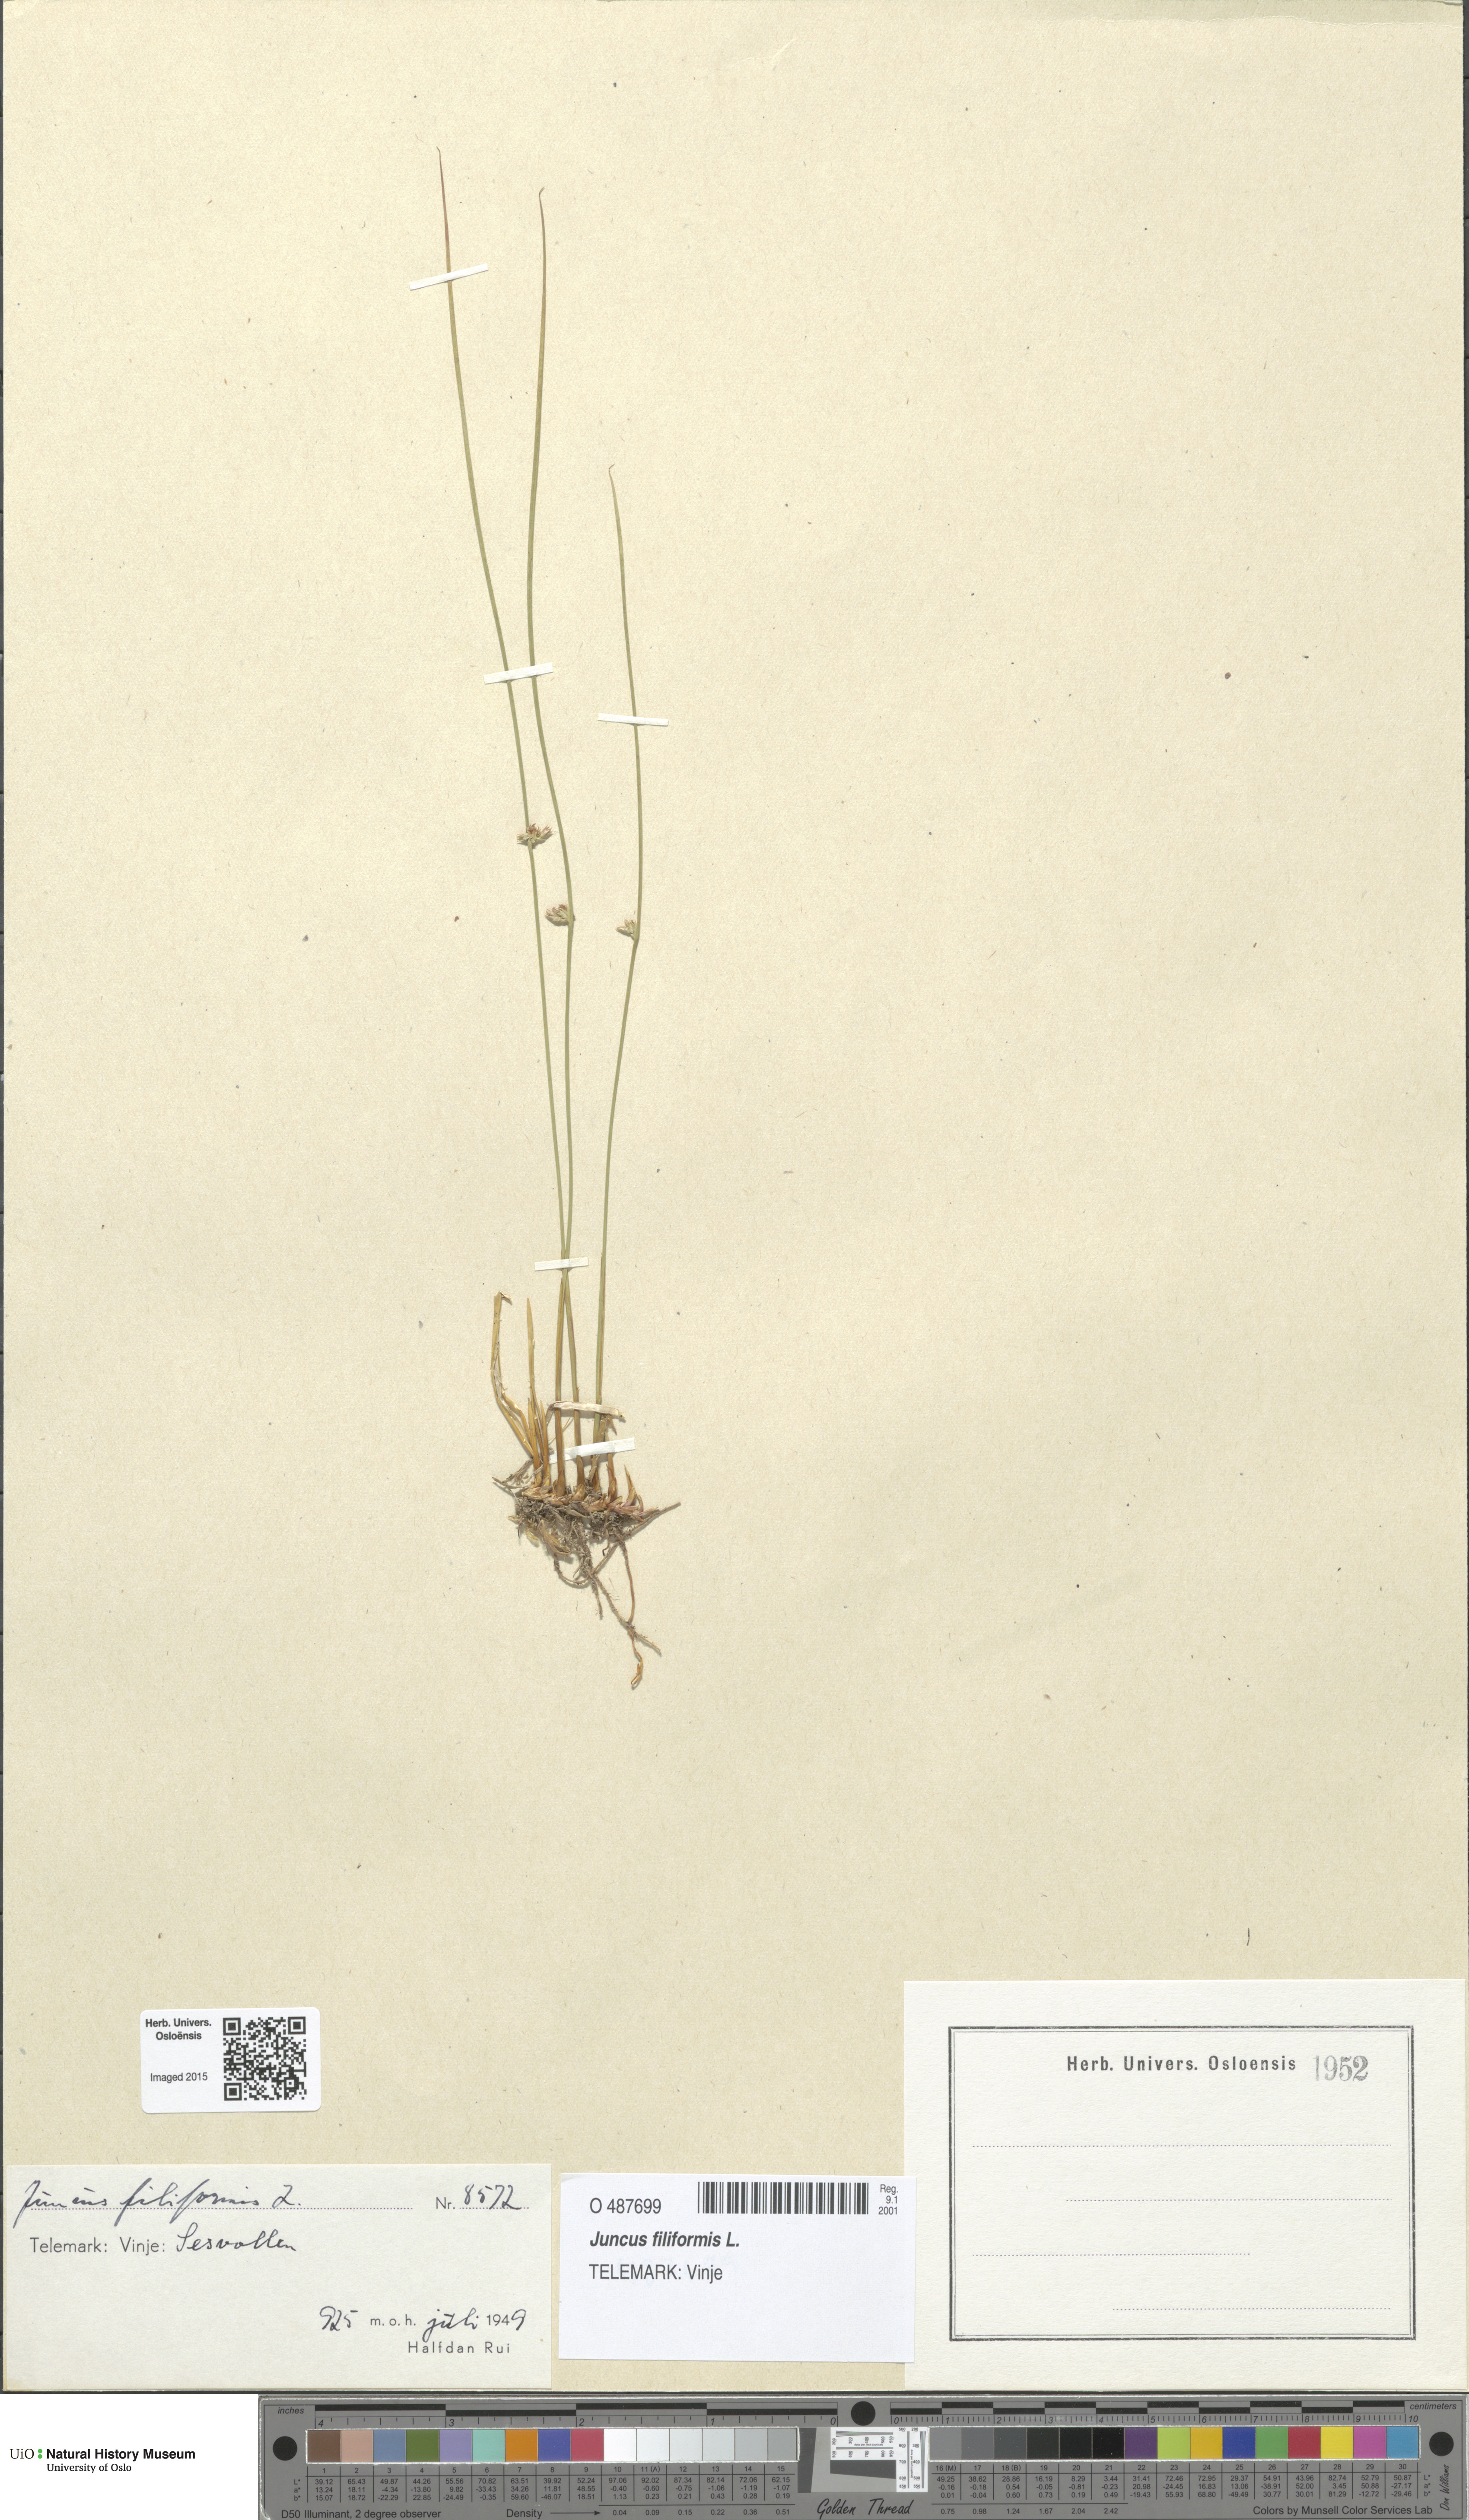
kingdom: Plantae
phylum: Tracheophyta
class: Liliopsida
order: Poales
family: Juncaceae
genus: Juncus
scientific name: Juncus filiformis
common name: Thread rush
